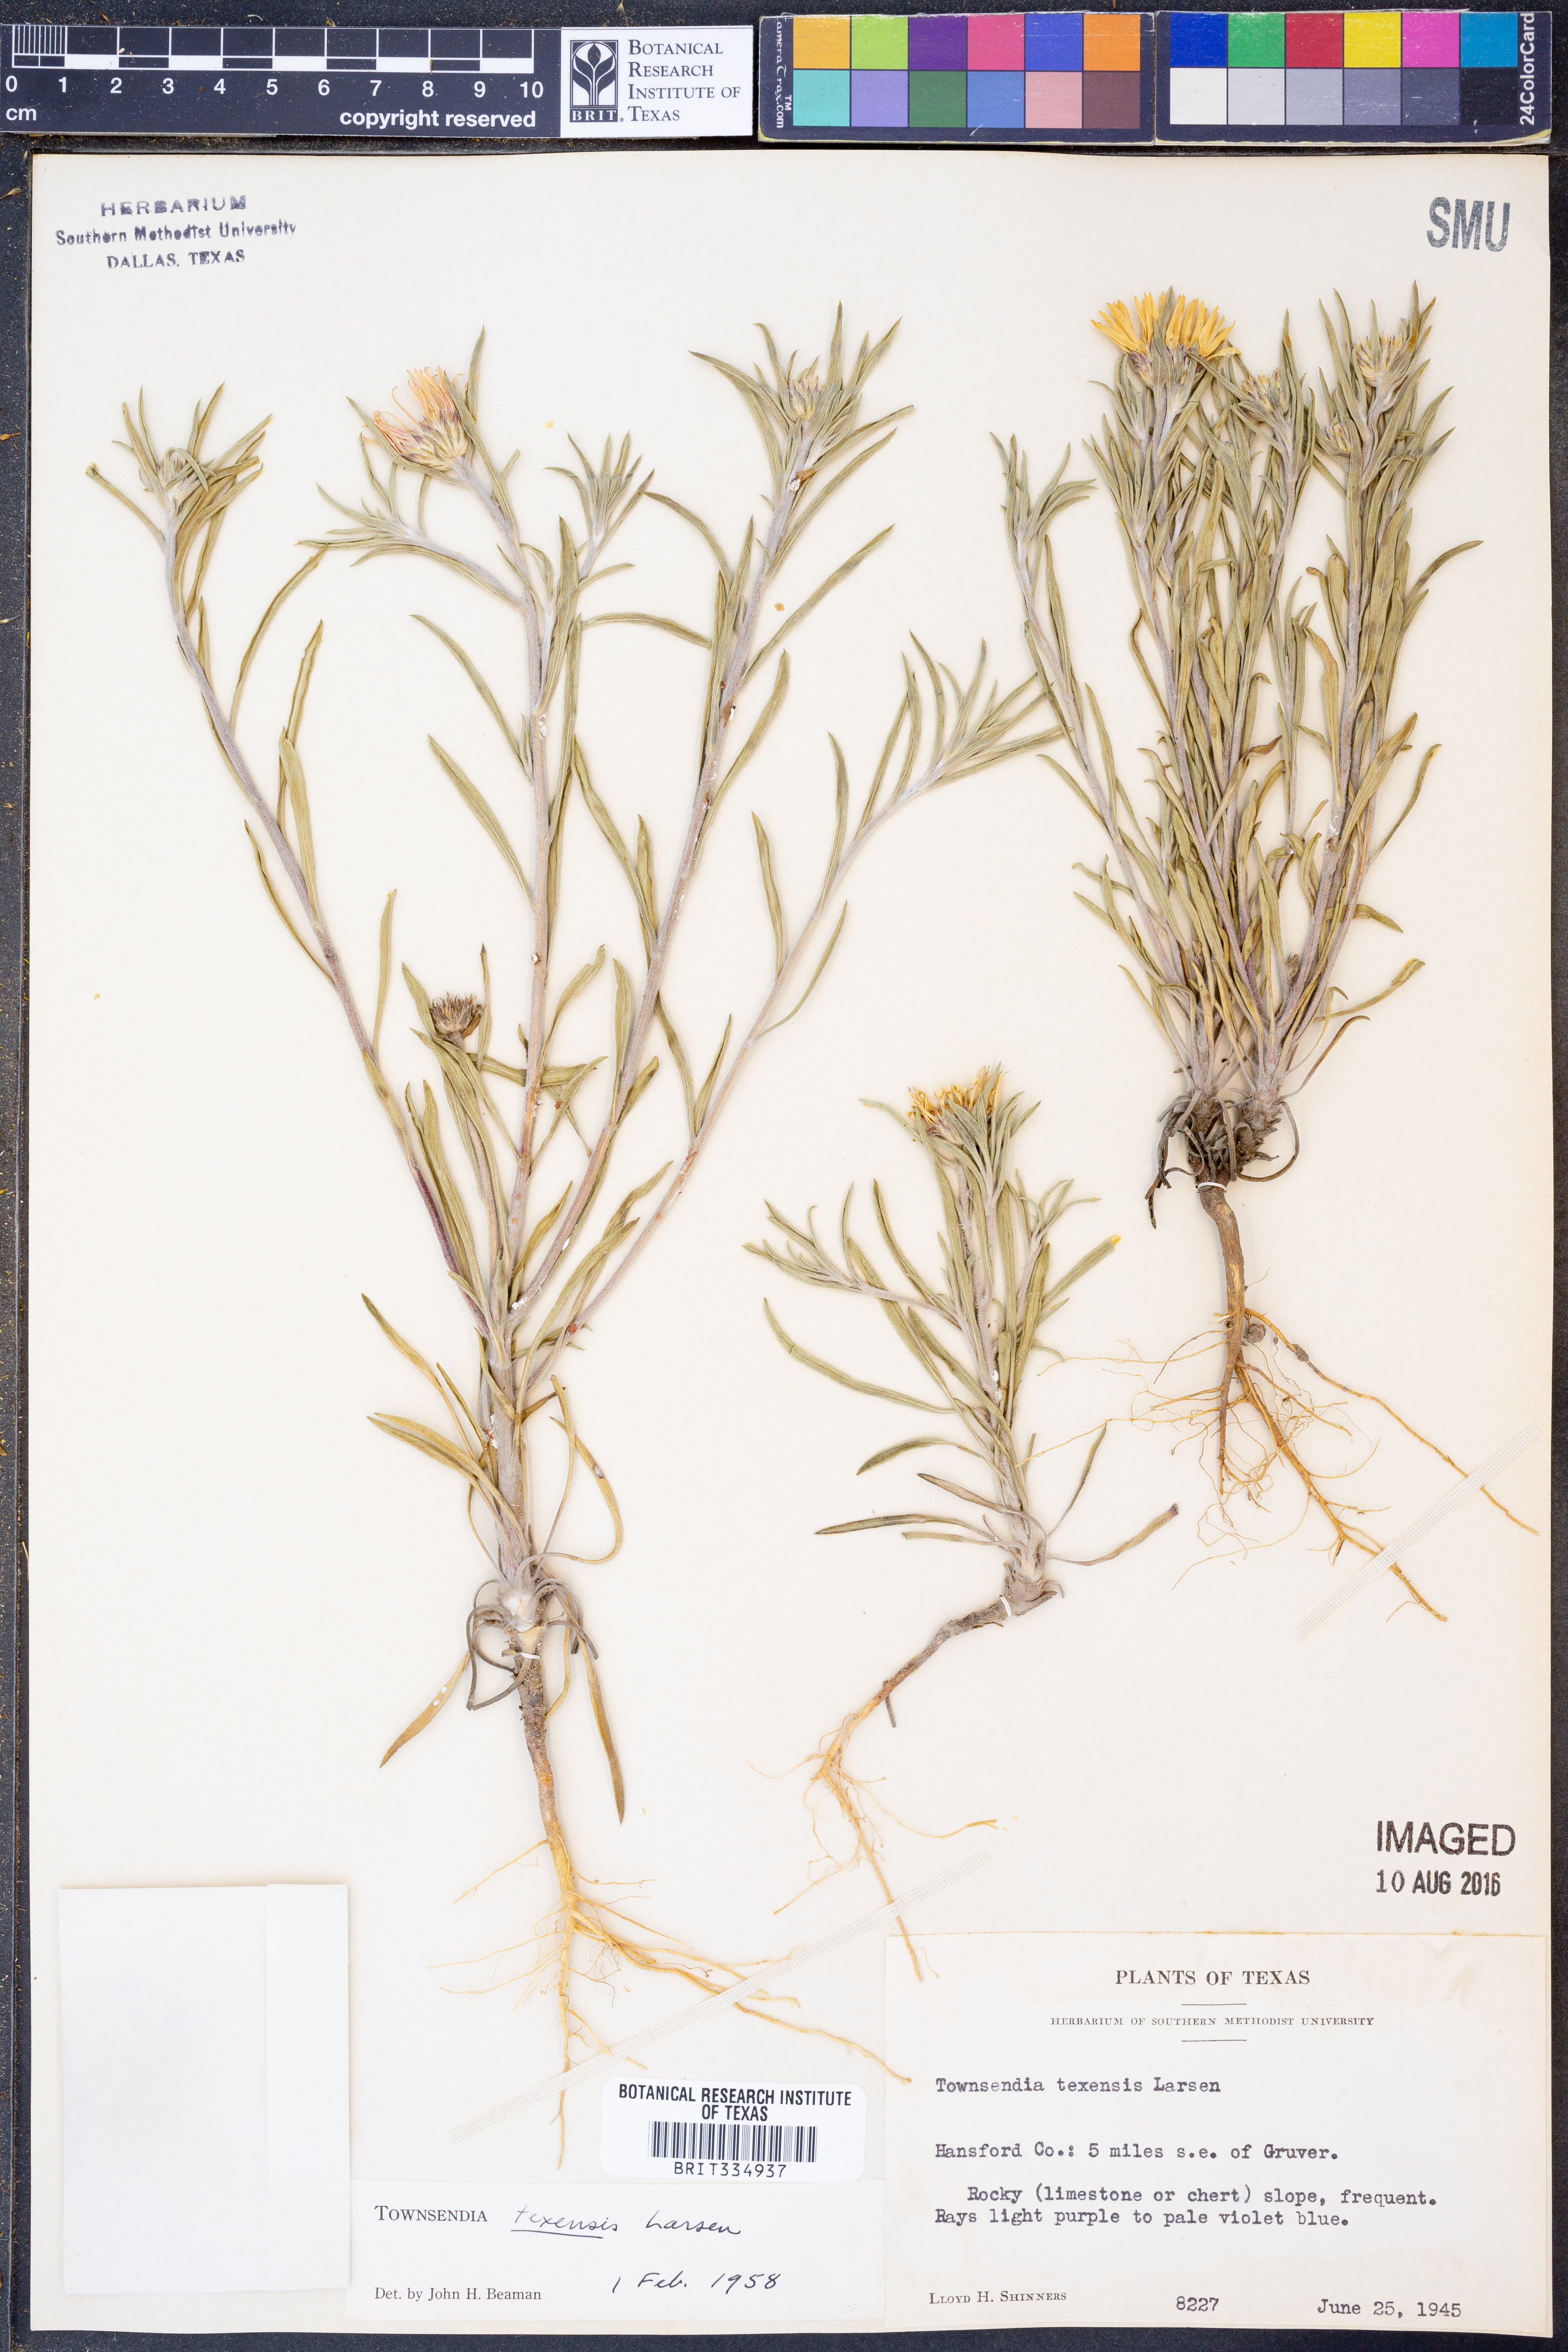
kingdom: Plantae
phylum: Tracheophyta
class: Magnoliopsida
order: Asterales
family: Asteraceae
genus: Townsendia
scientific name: Townsendia texensis
